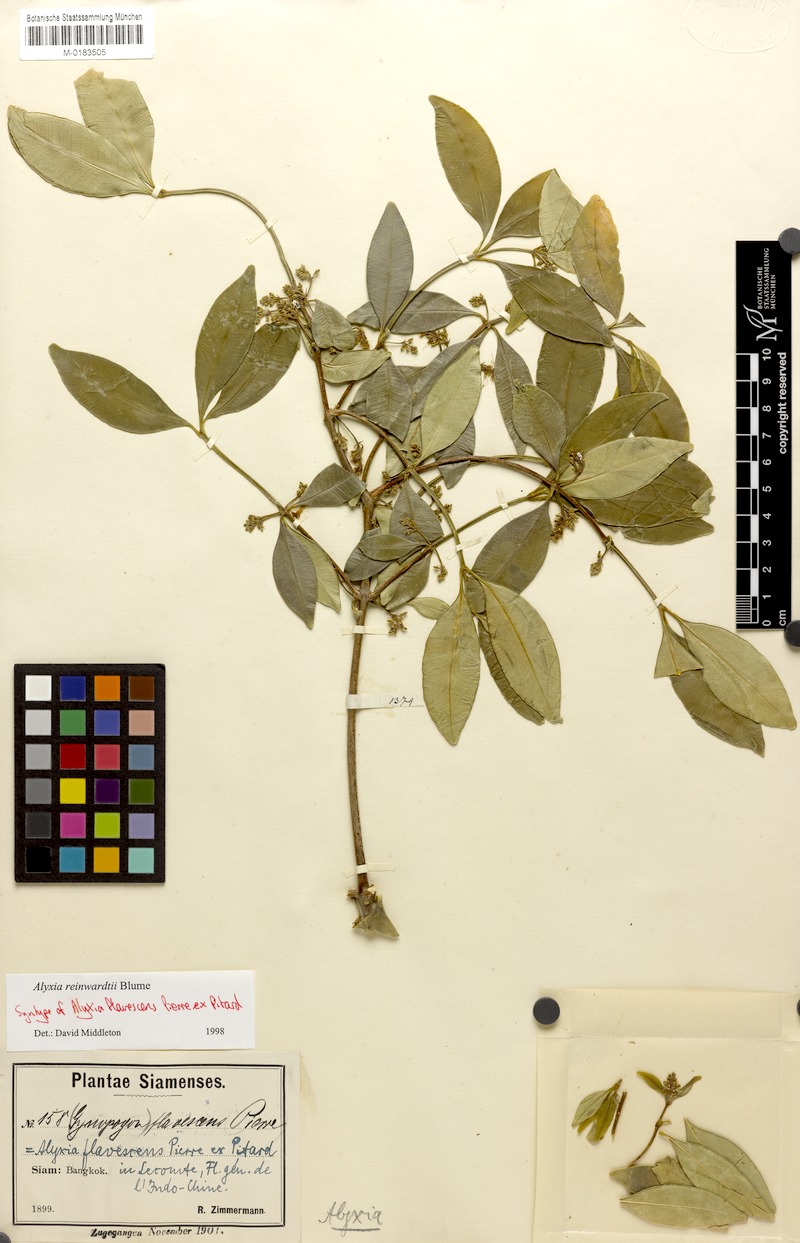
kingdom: Plantae
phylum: Tracheophyta
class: Magnoliopsida
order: Gentianales
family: Apocynaceae
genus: Alyxia
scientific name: Alyxia reinwardtii
